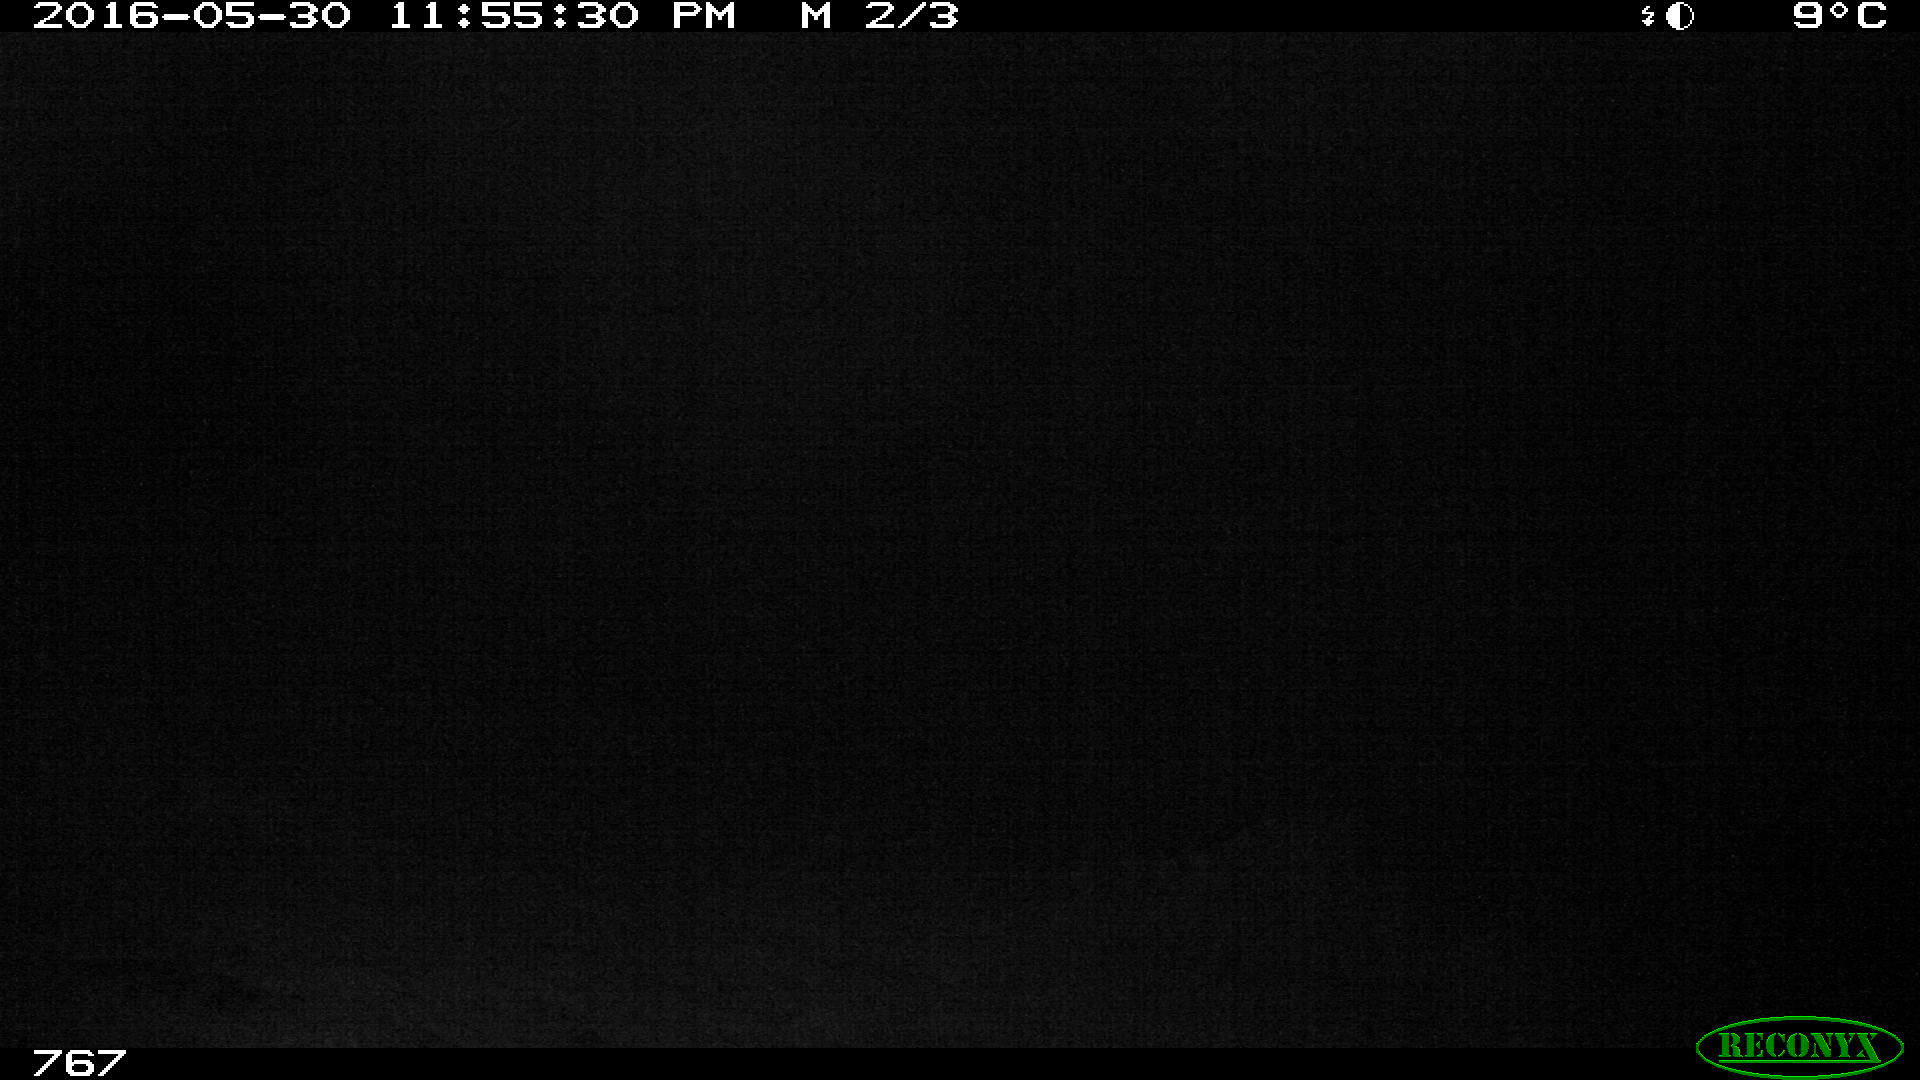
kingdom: Animalia
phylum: Chordata
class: Mammalia
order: Perissodactyla
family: Equidae
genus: Equus
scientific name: Equus caballus
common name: Horse
